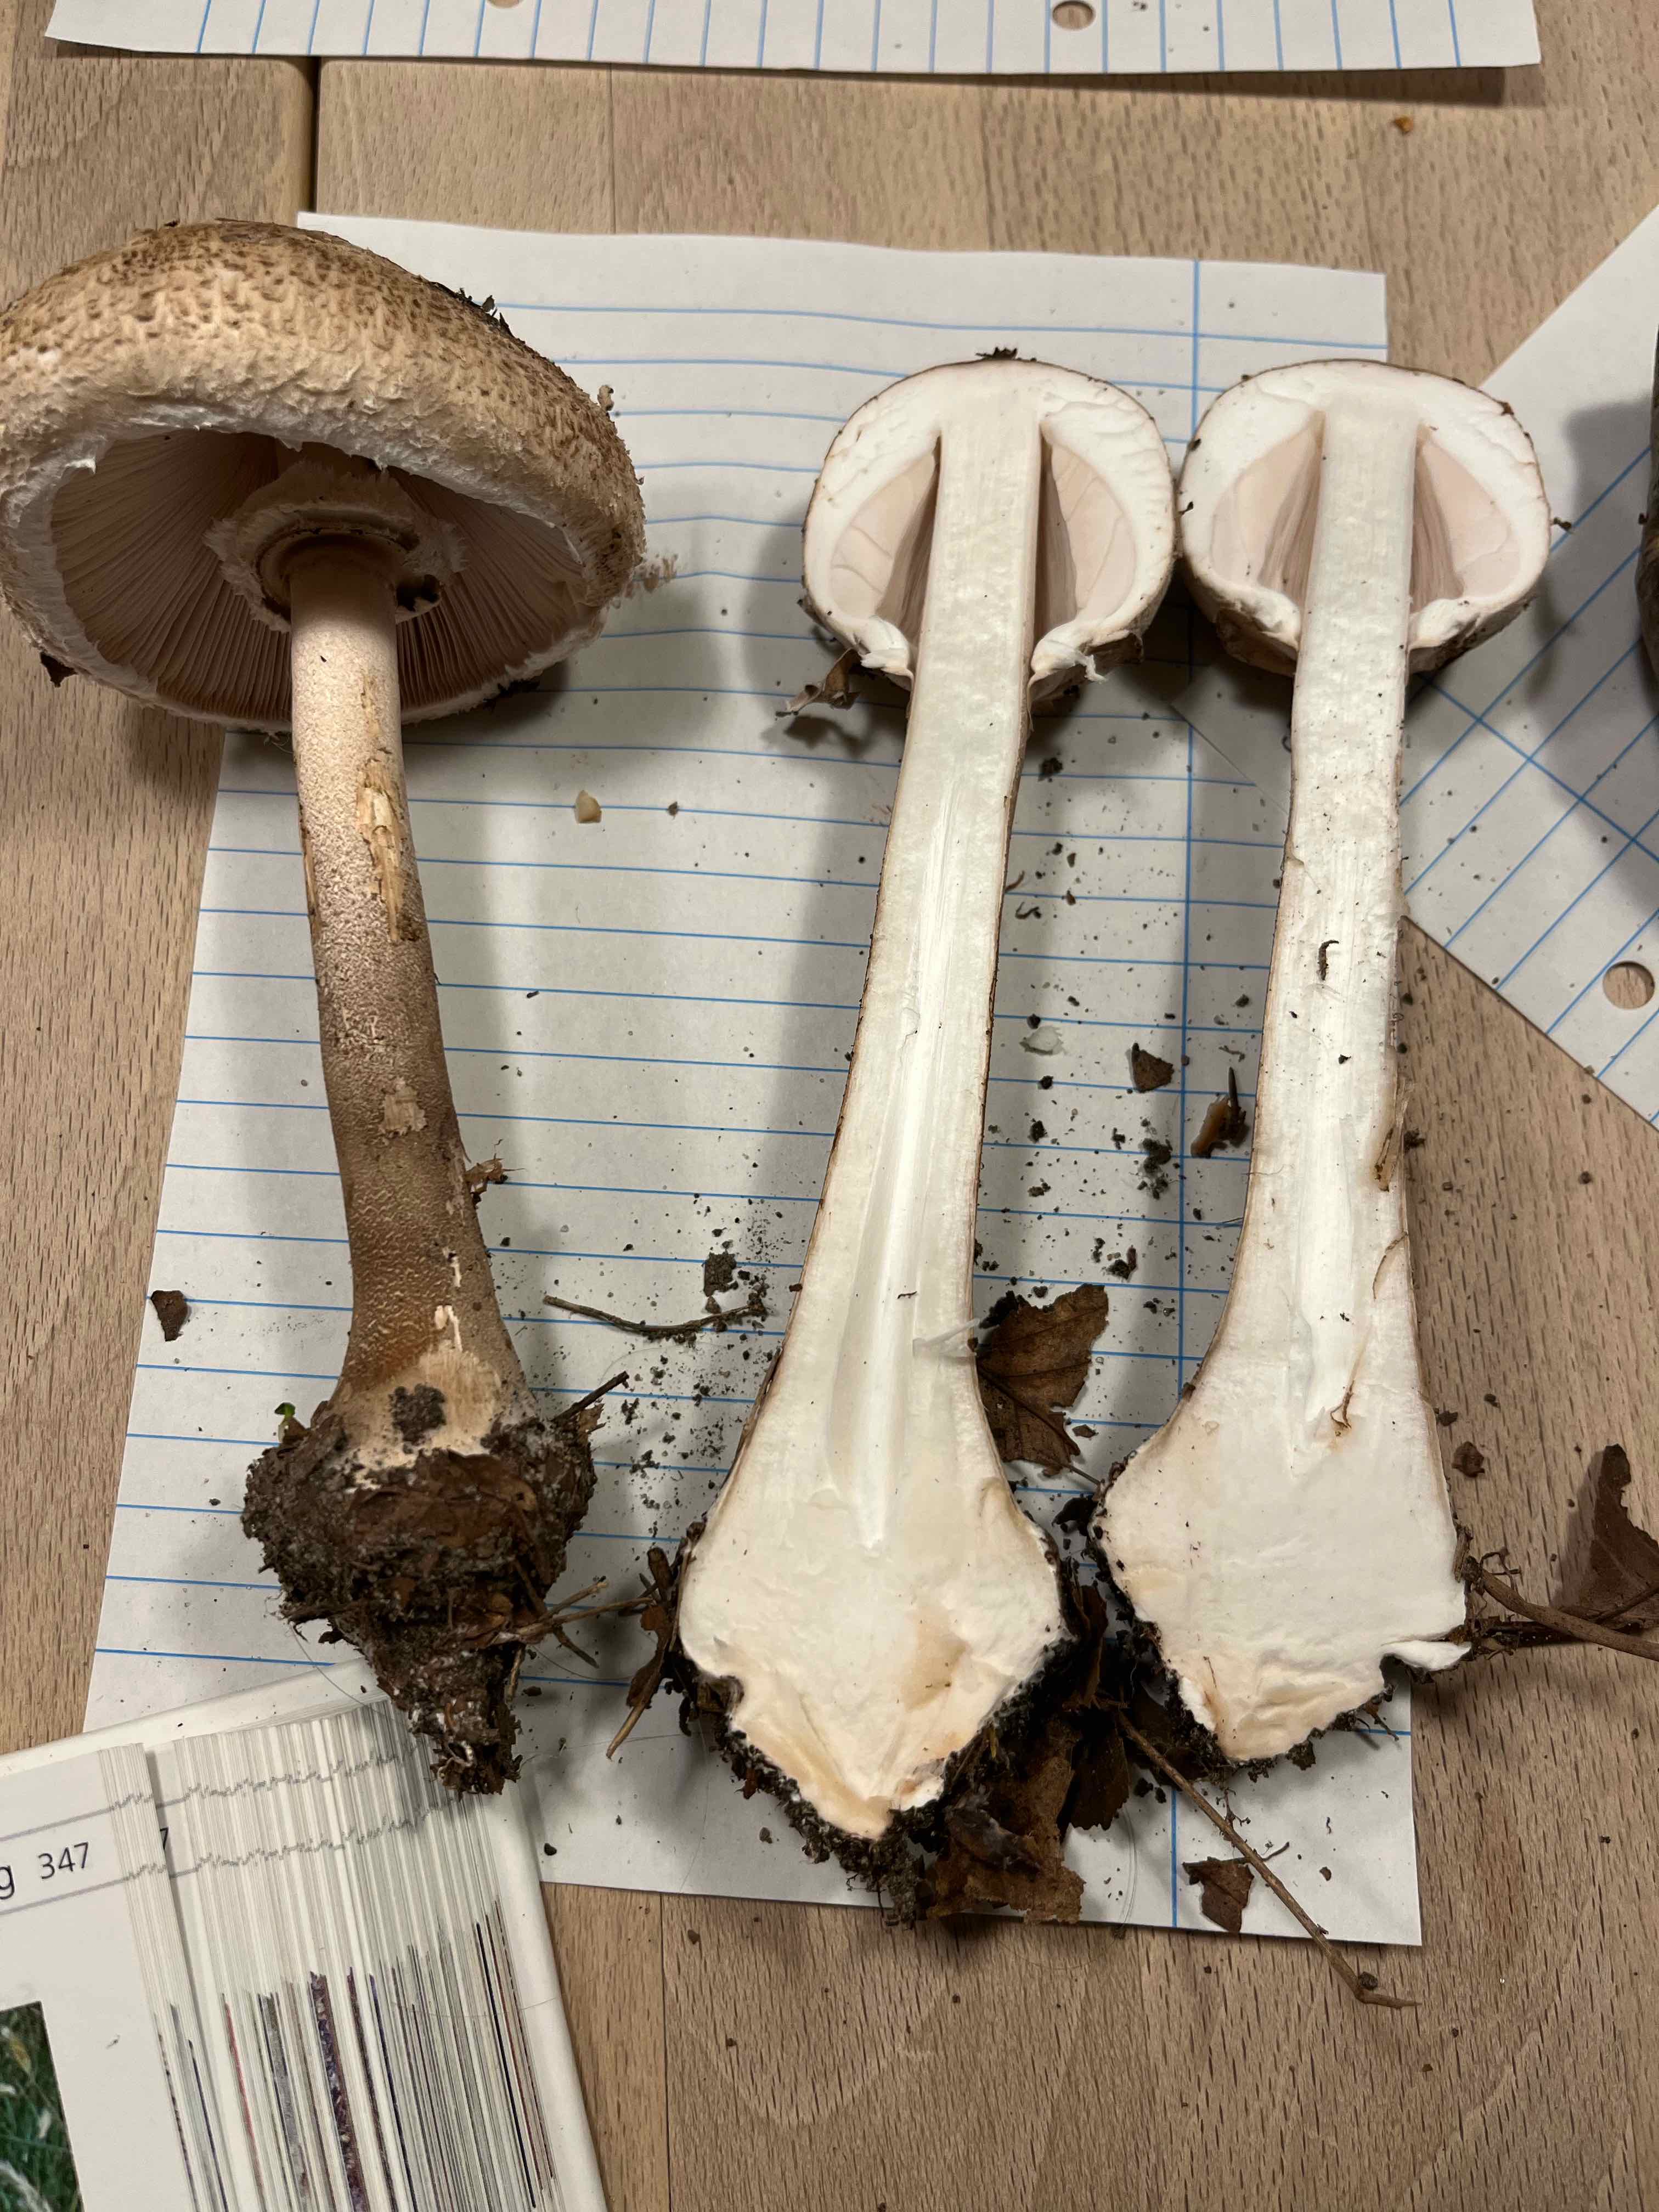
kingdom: Fungi
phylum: Basidiomycota
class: Agaricomycetes
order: Agaricales
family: Agaricaceae
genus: Macrolepiota
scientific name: Macrolepiota mastoidea
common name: puklet kæmpeparasolhat
